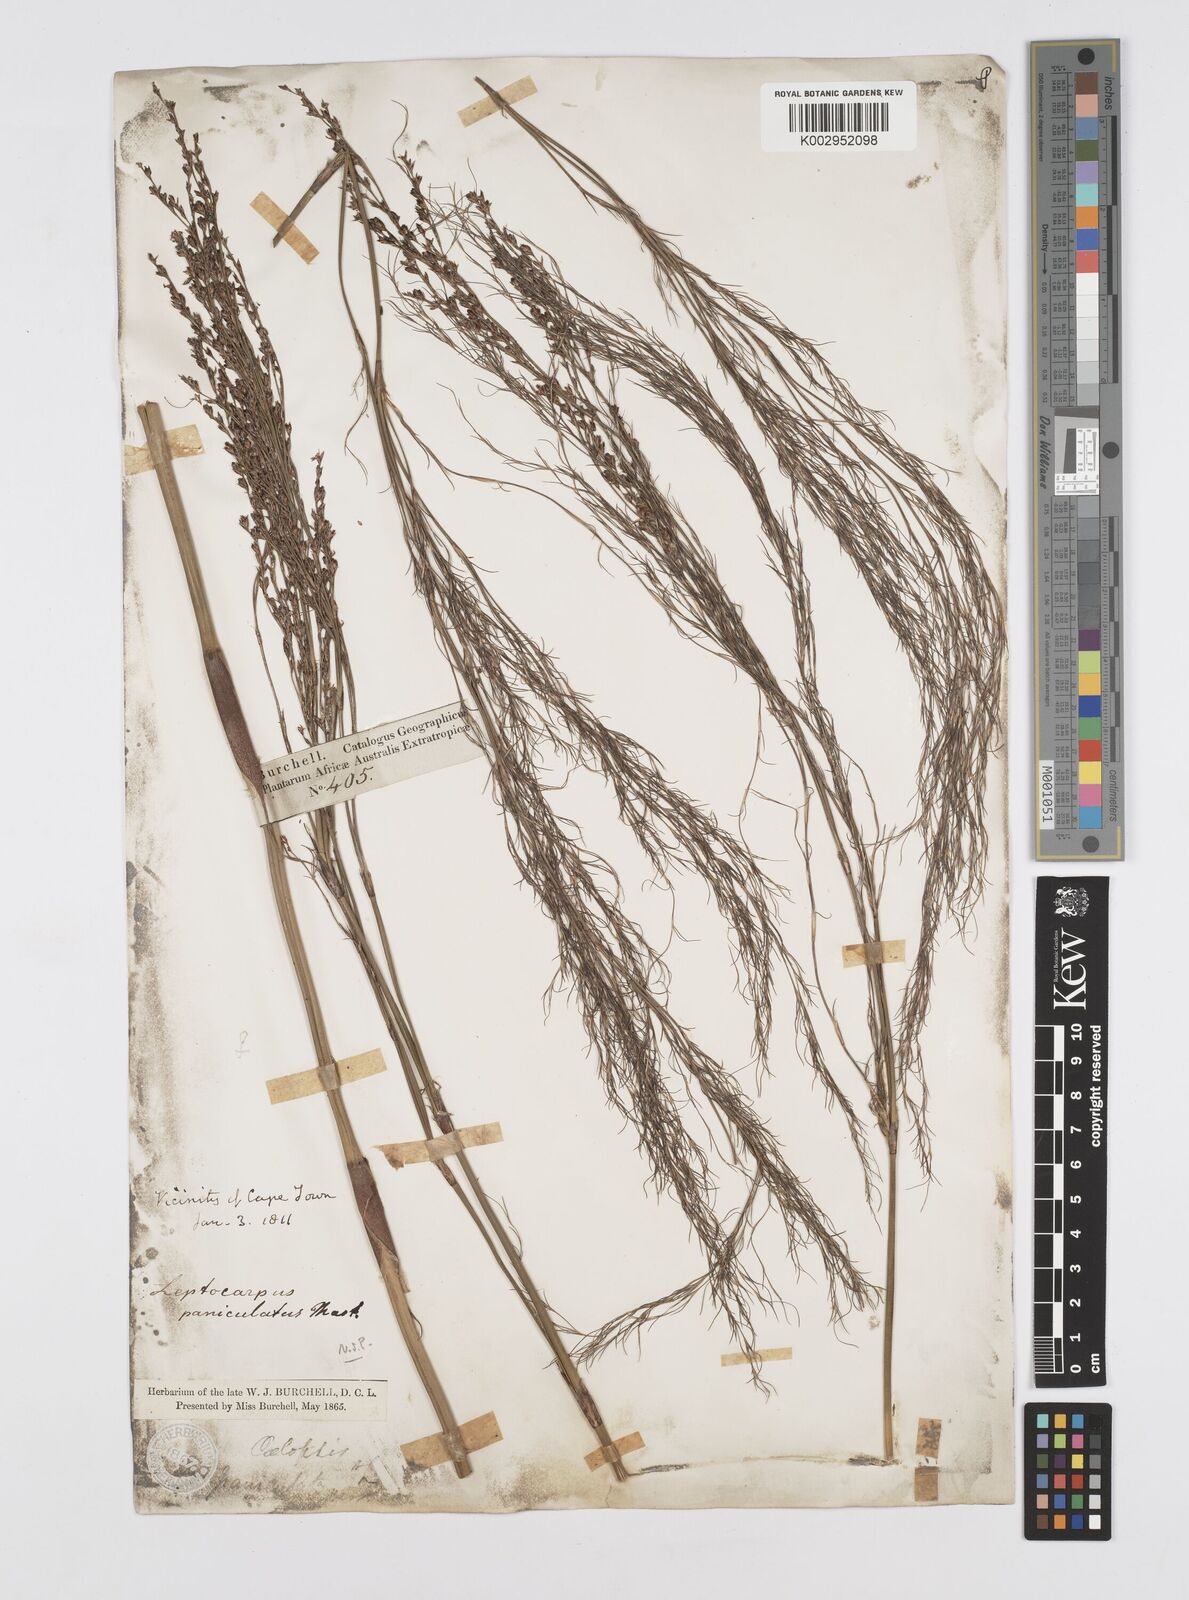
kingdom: Plantae
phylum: Tracheophyta
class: Liliopsida
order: Poales
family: Restionaceae
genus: Restio
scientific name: Restio paniculatus
